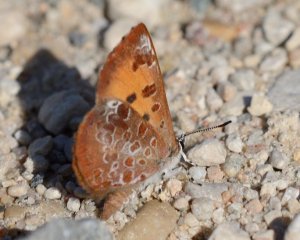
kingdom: Animalia
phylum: Arthropoda
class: Insecta
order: Lepidoptera
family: Lycaenidae
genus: Feniseca
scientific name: Feniseca tarquinius
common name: Harvester
